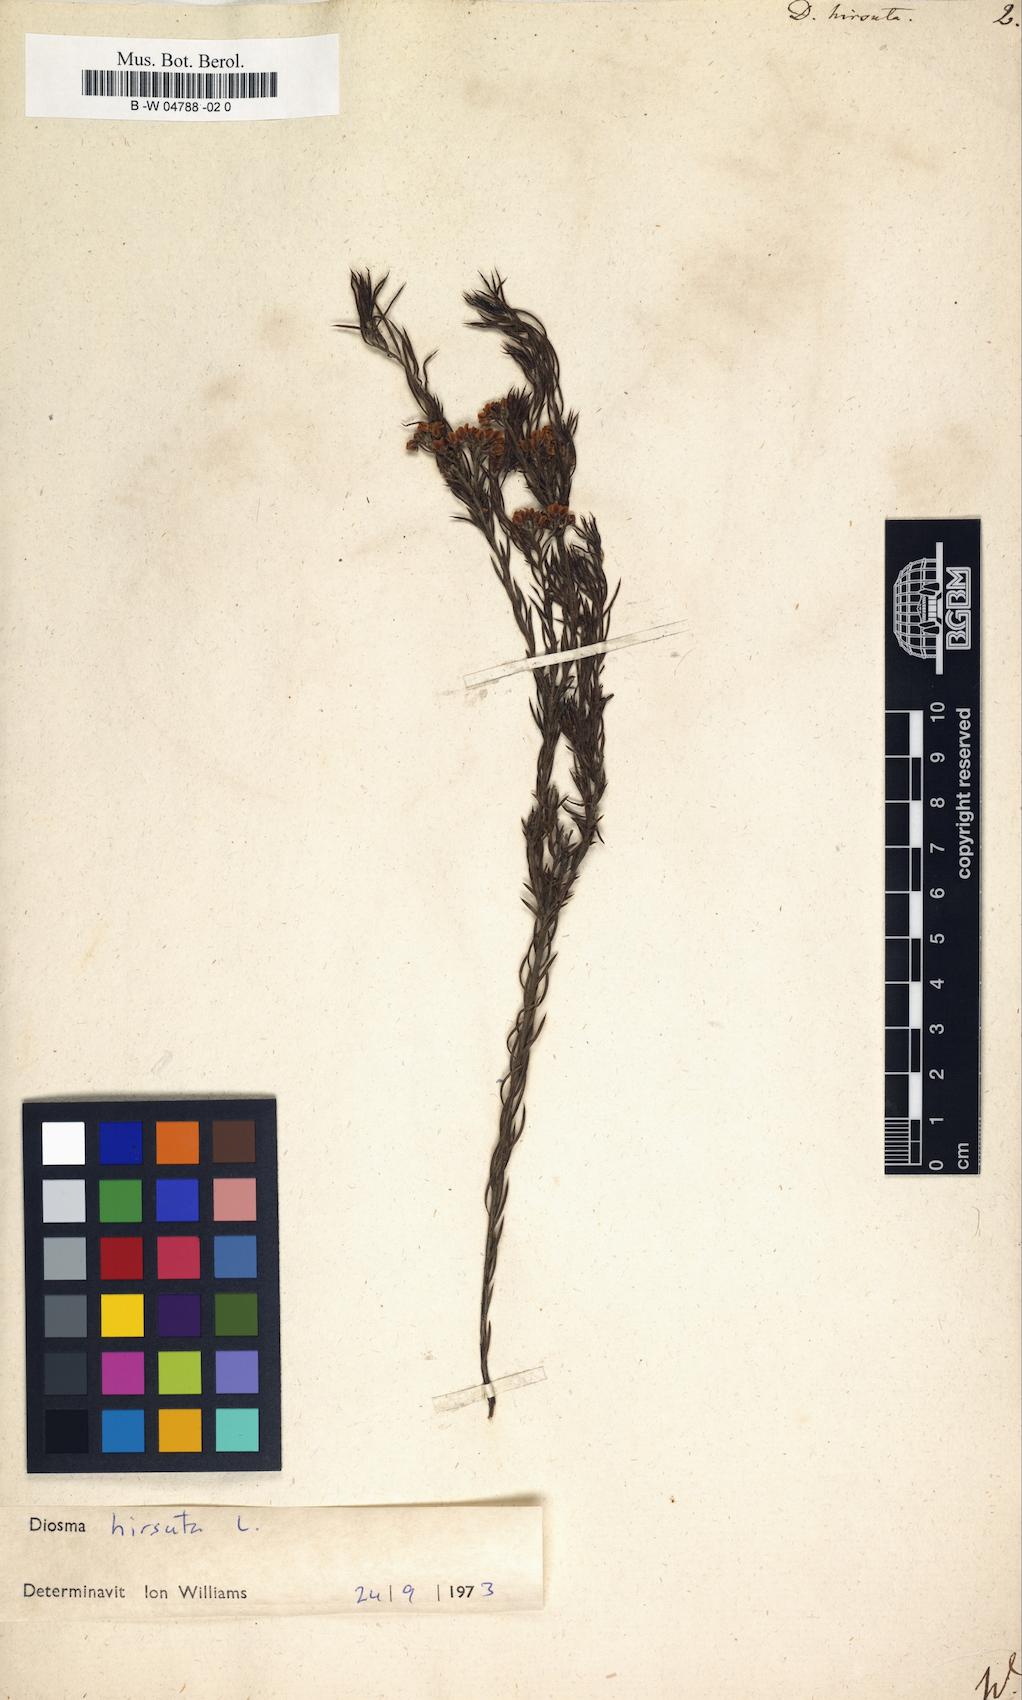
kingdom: Plantae
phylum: Tracheophyta
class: Magnoliopsida
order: Sapindales
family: Rutaceae
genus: Diosma
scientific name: Diosma hirsuta
